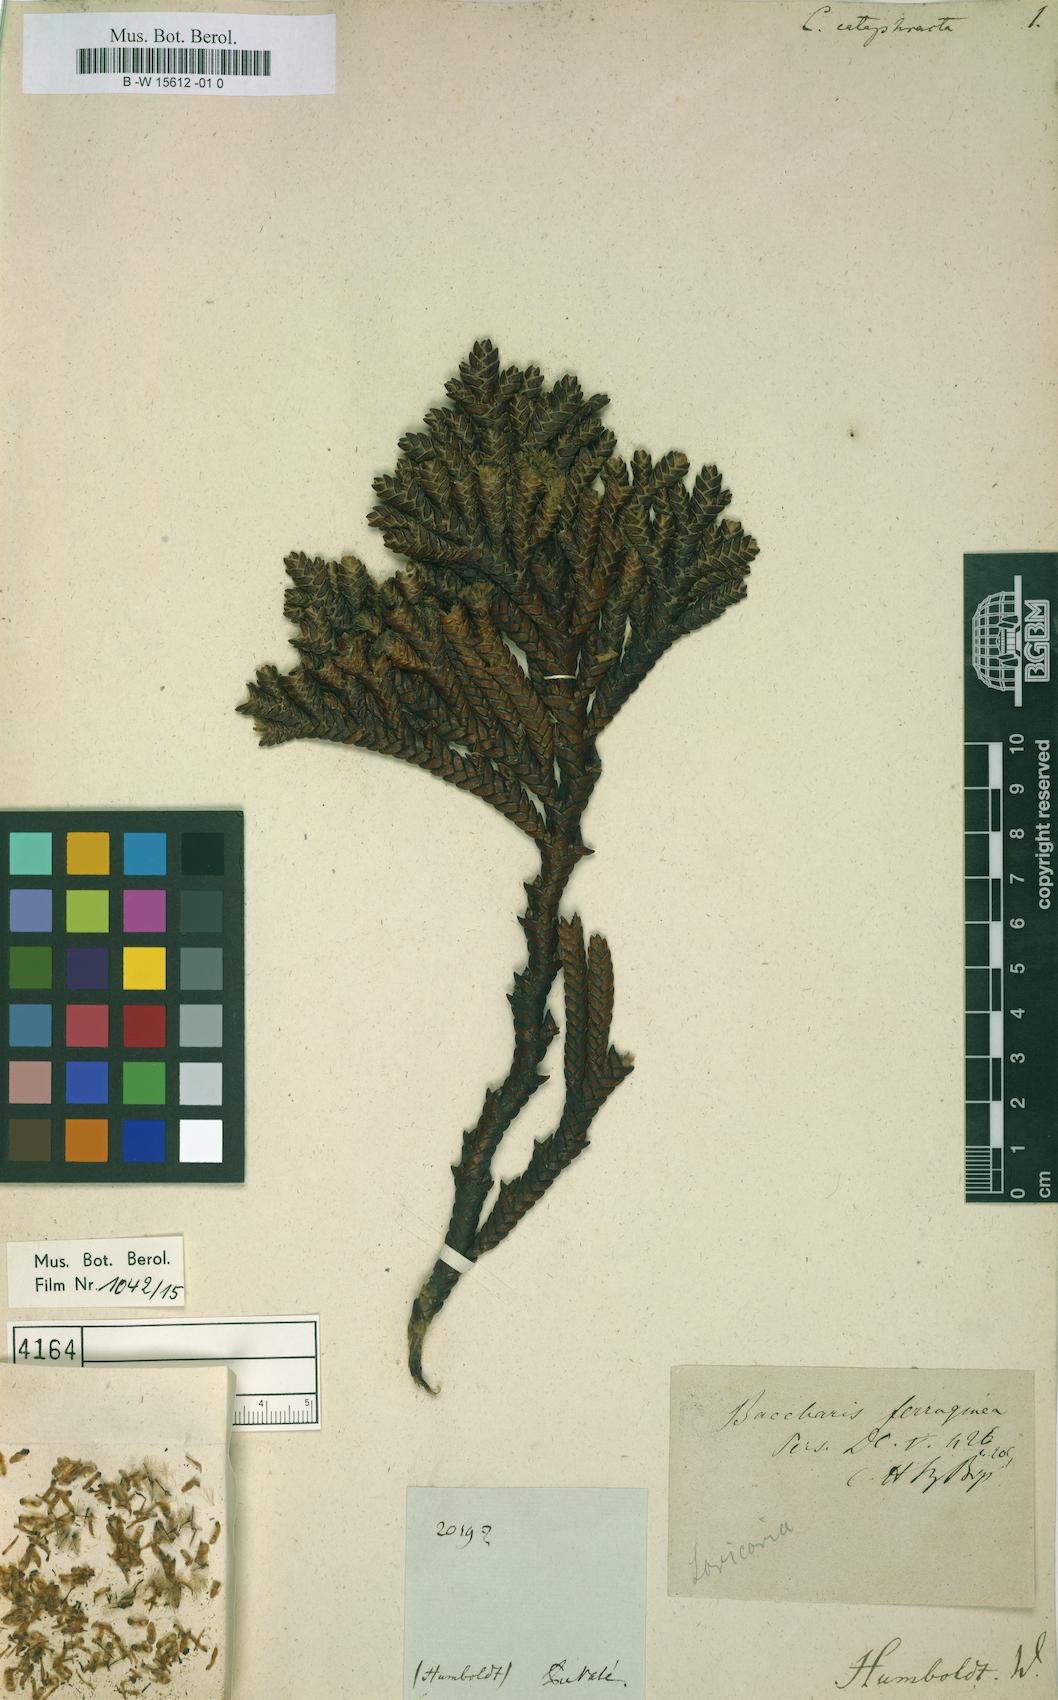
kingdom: Plantae
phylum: Tracheophyta
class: Magnoliopsida
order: Asterales
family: Asteraceae
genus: Baccharis
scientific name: Baccharis cataphracta
